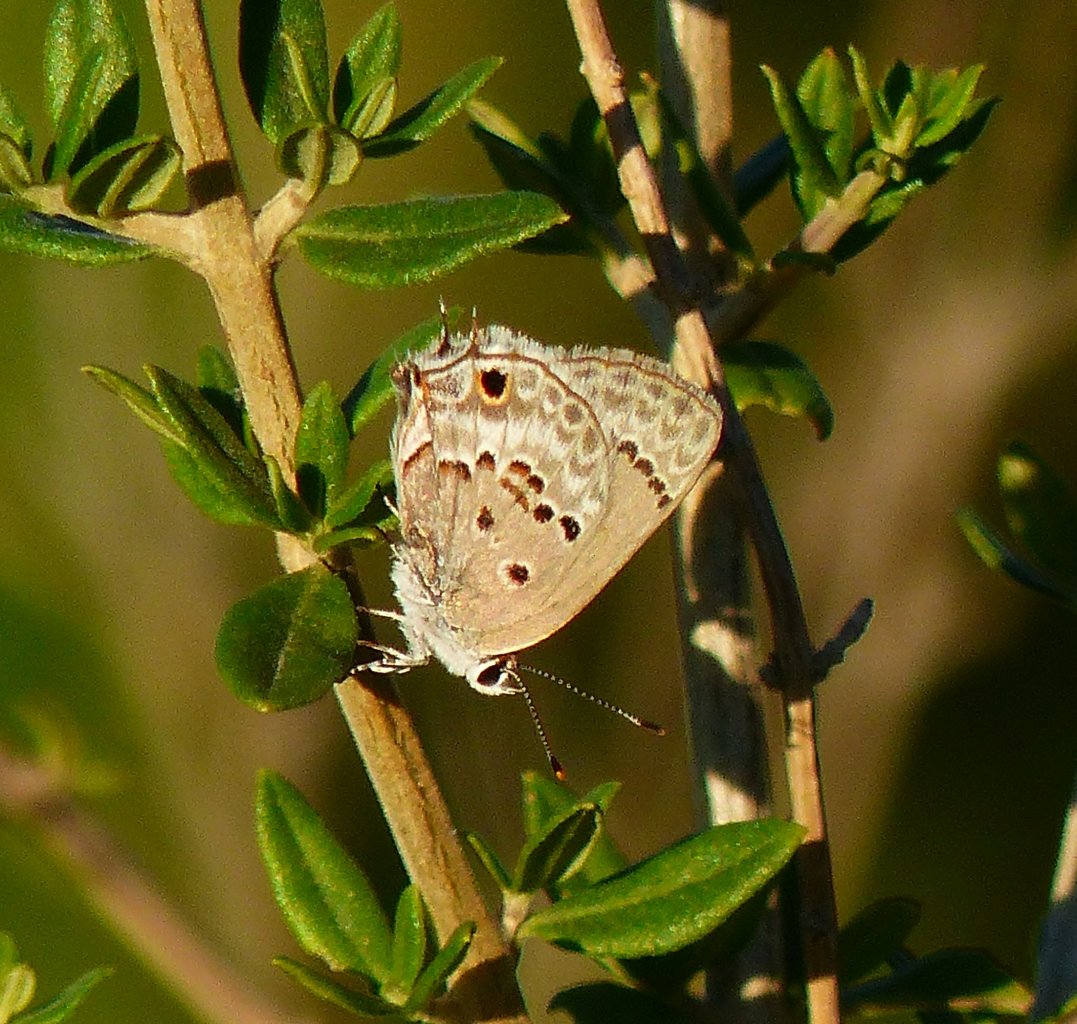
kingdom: Animalia
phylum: Arthropoda
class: Insecta
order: Lepidoptera
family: Lycaenidae
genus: Callicista
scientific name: Callicista columella
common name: Mallow Scrub-Hairstreak
